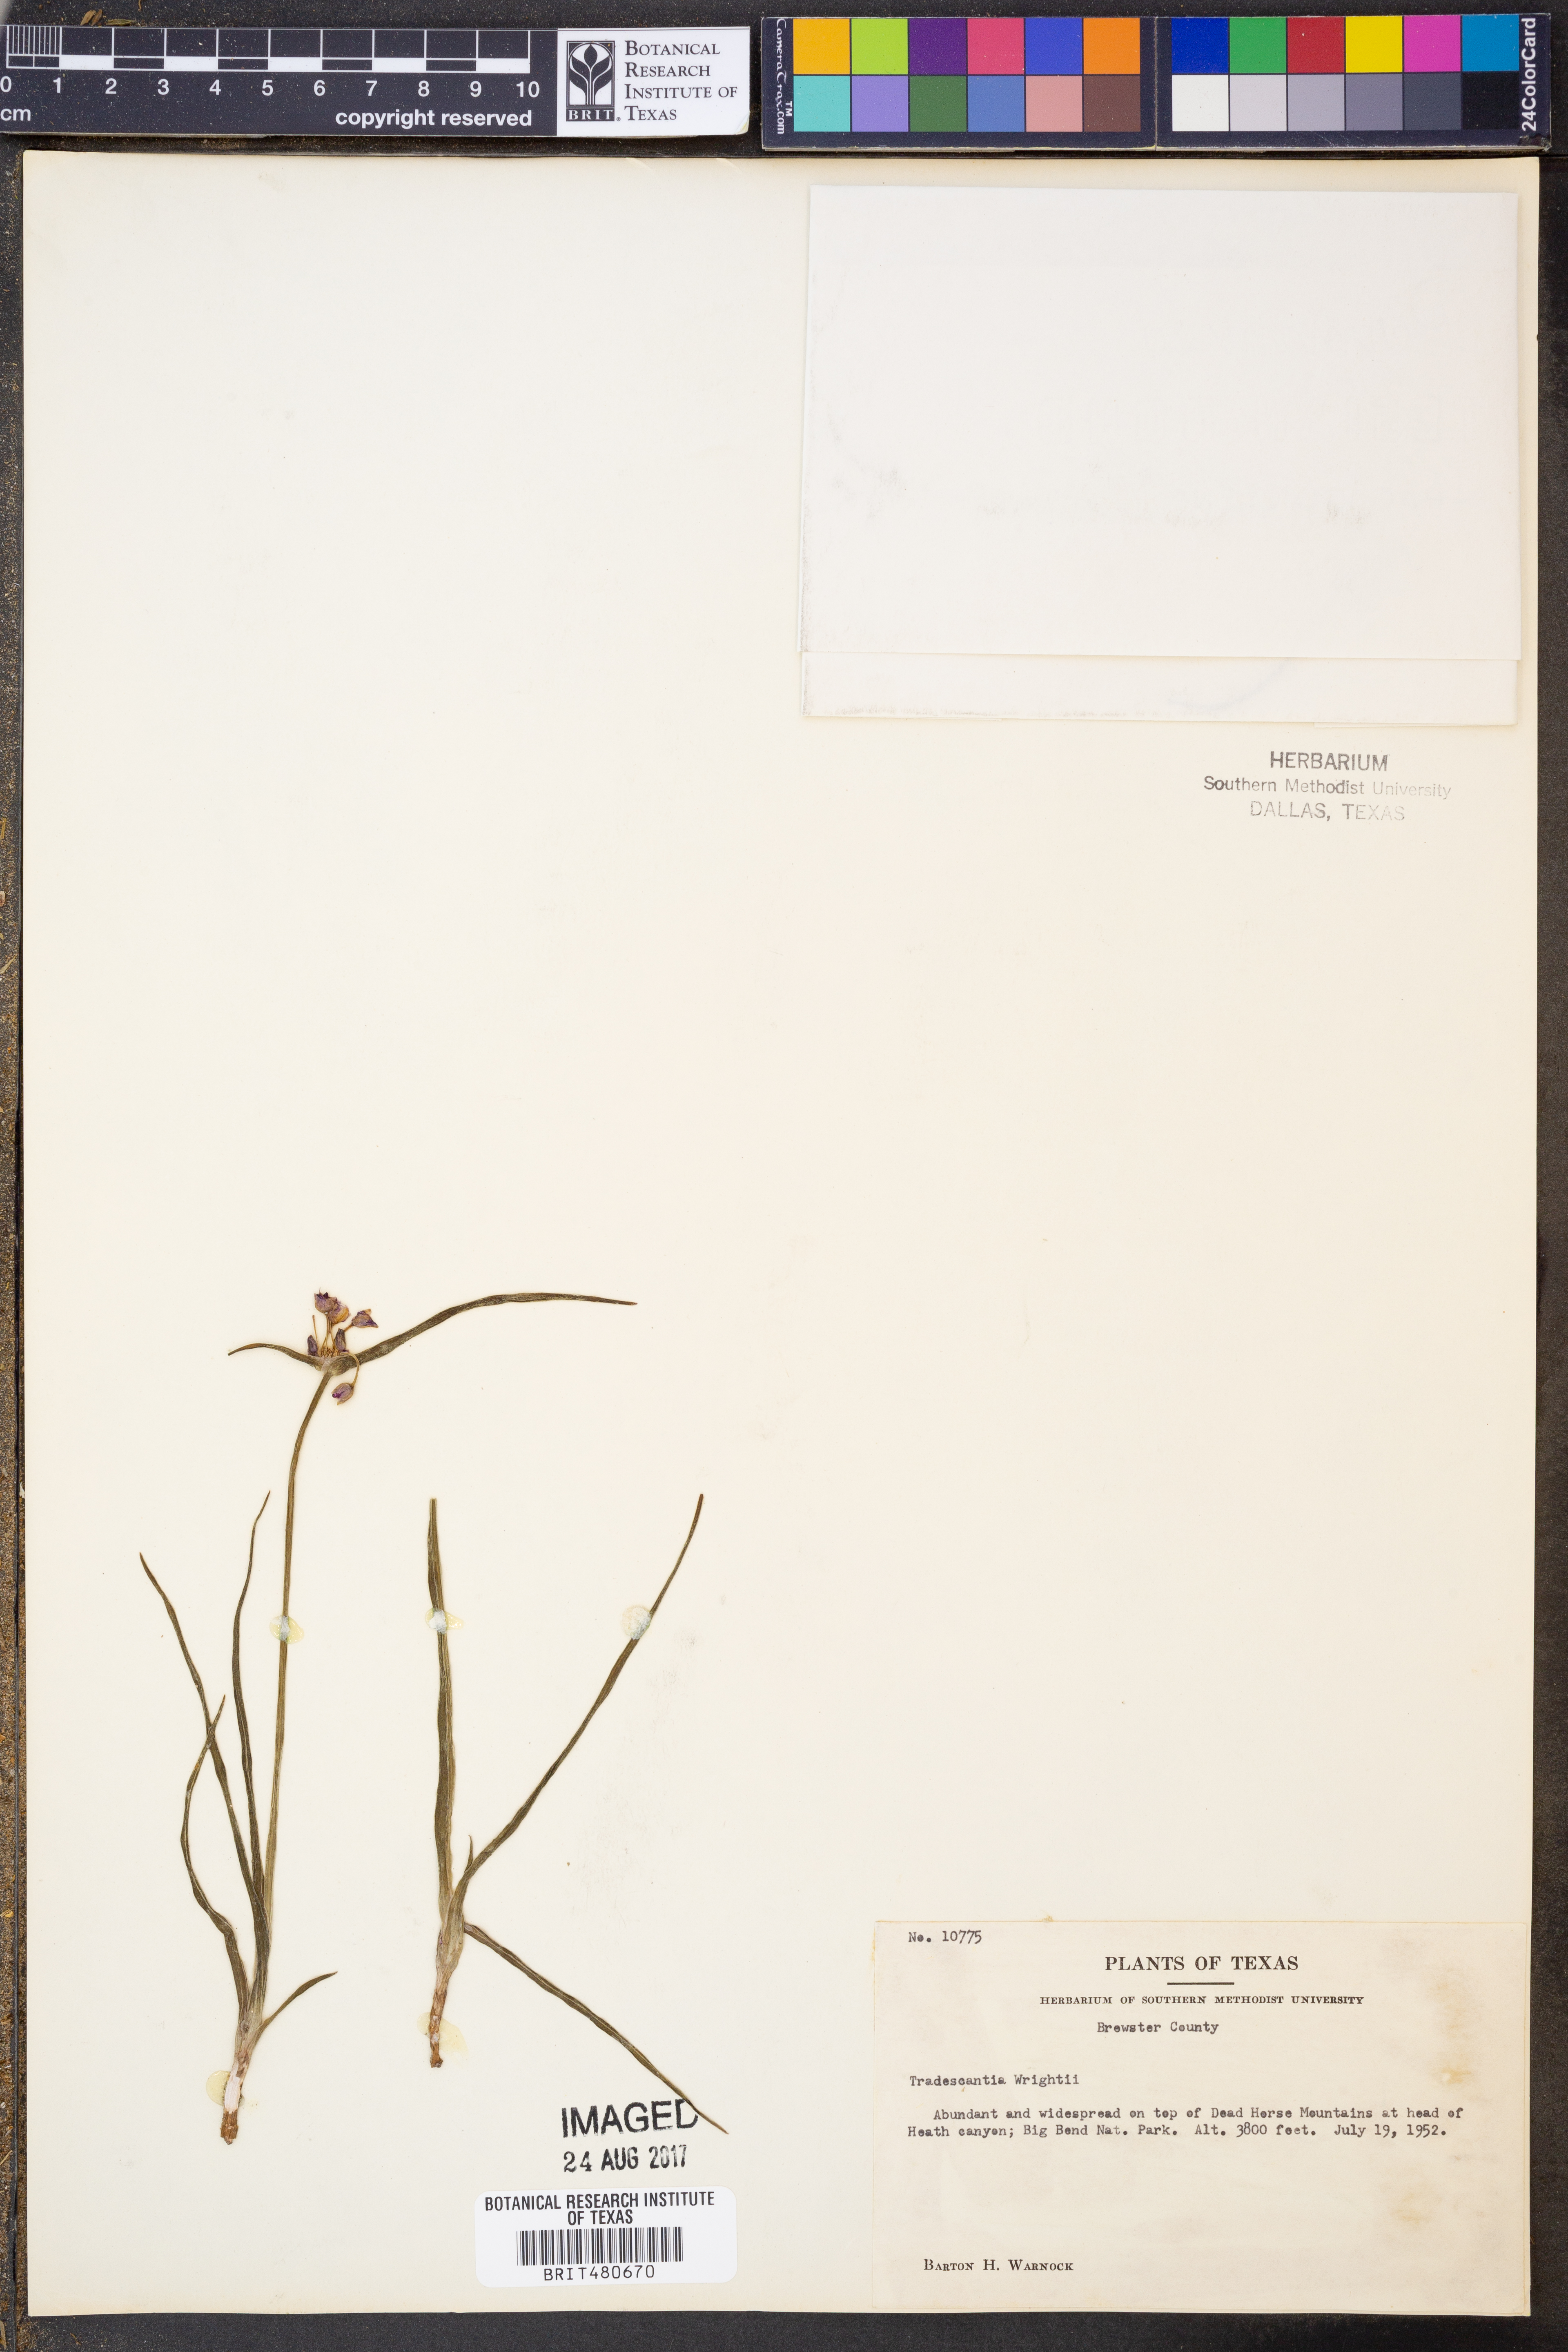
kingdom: Plantae
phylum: Tracheophyta
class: Liliopsida
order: Commelinales
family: Commelinaceae
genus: Tradescantia
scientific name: Tradescantia wrightii
